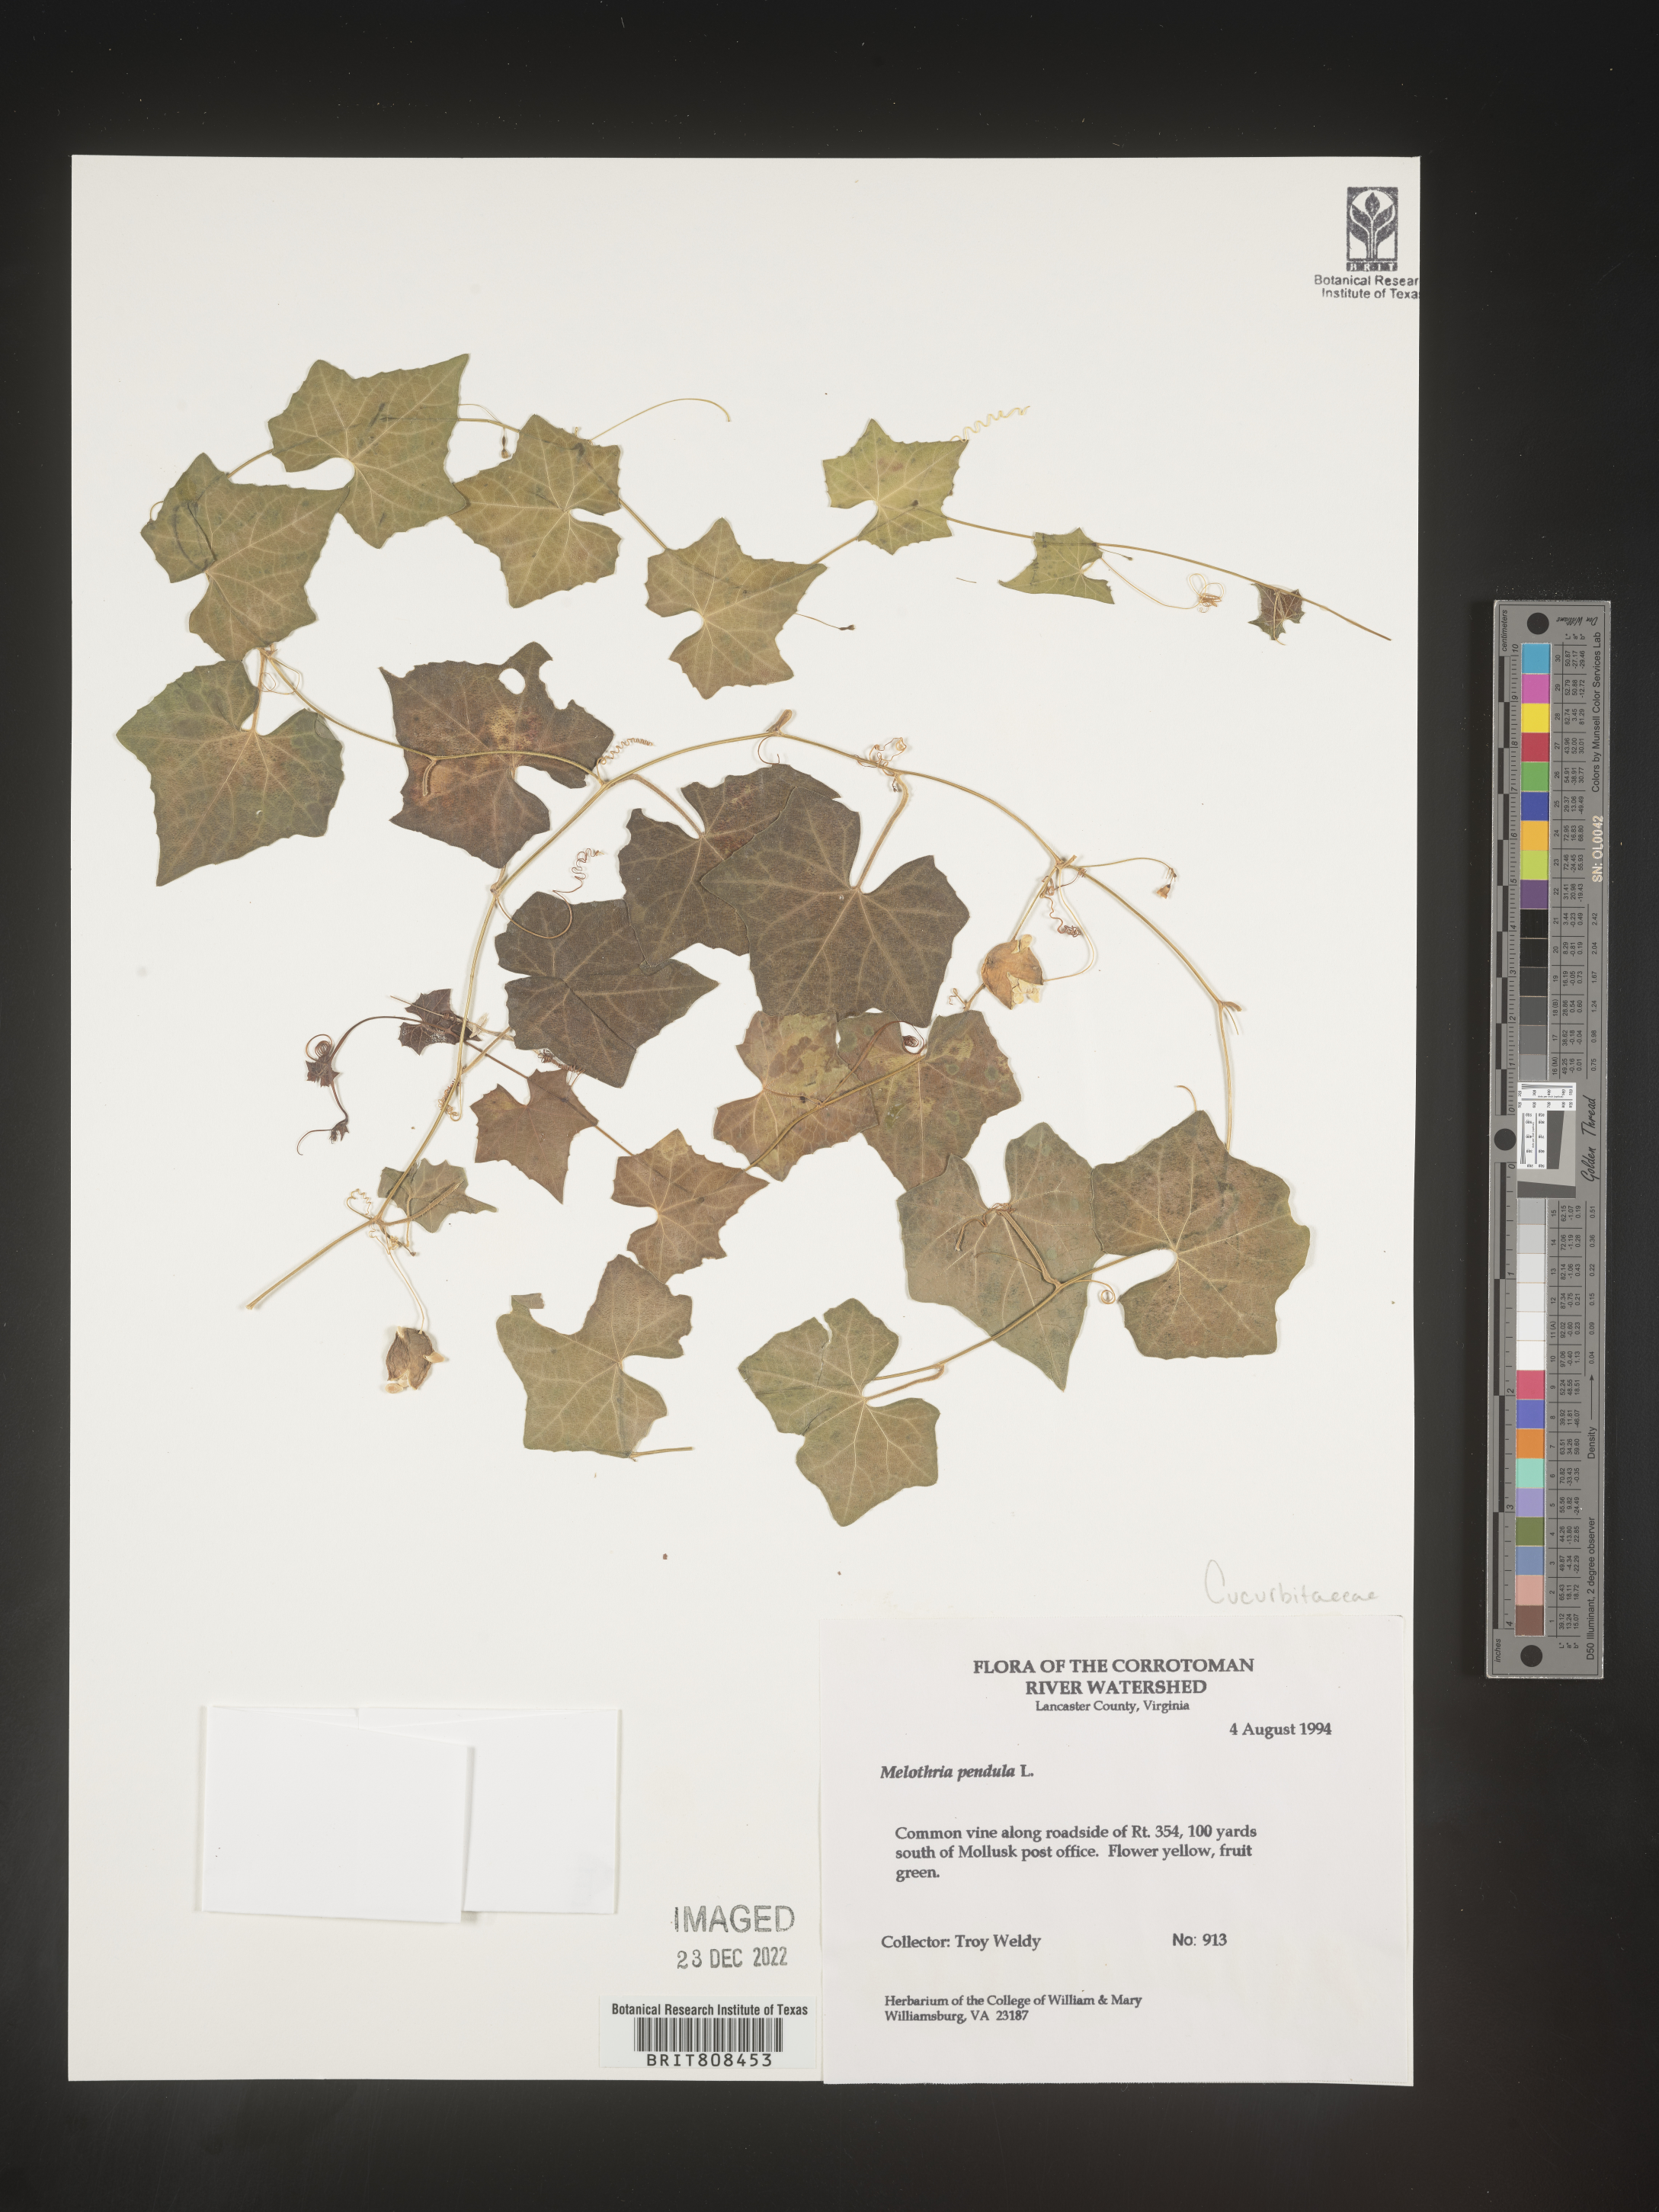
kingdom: Plantae
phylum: Tracheophyta
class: Magnoliopsida
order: Cucurbitales
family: Cucurbitaceae
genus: Melothria
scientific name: Melothria pendula
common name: Creeping-cucumber
